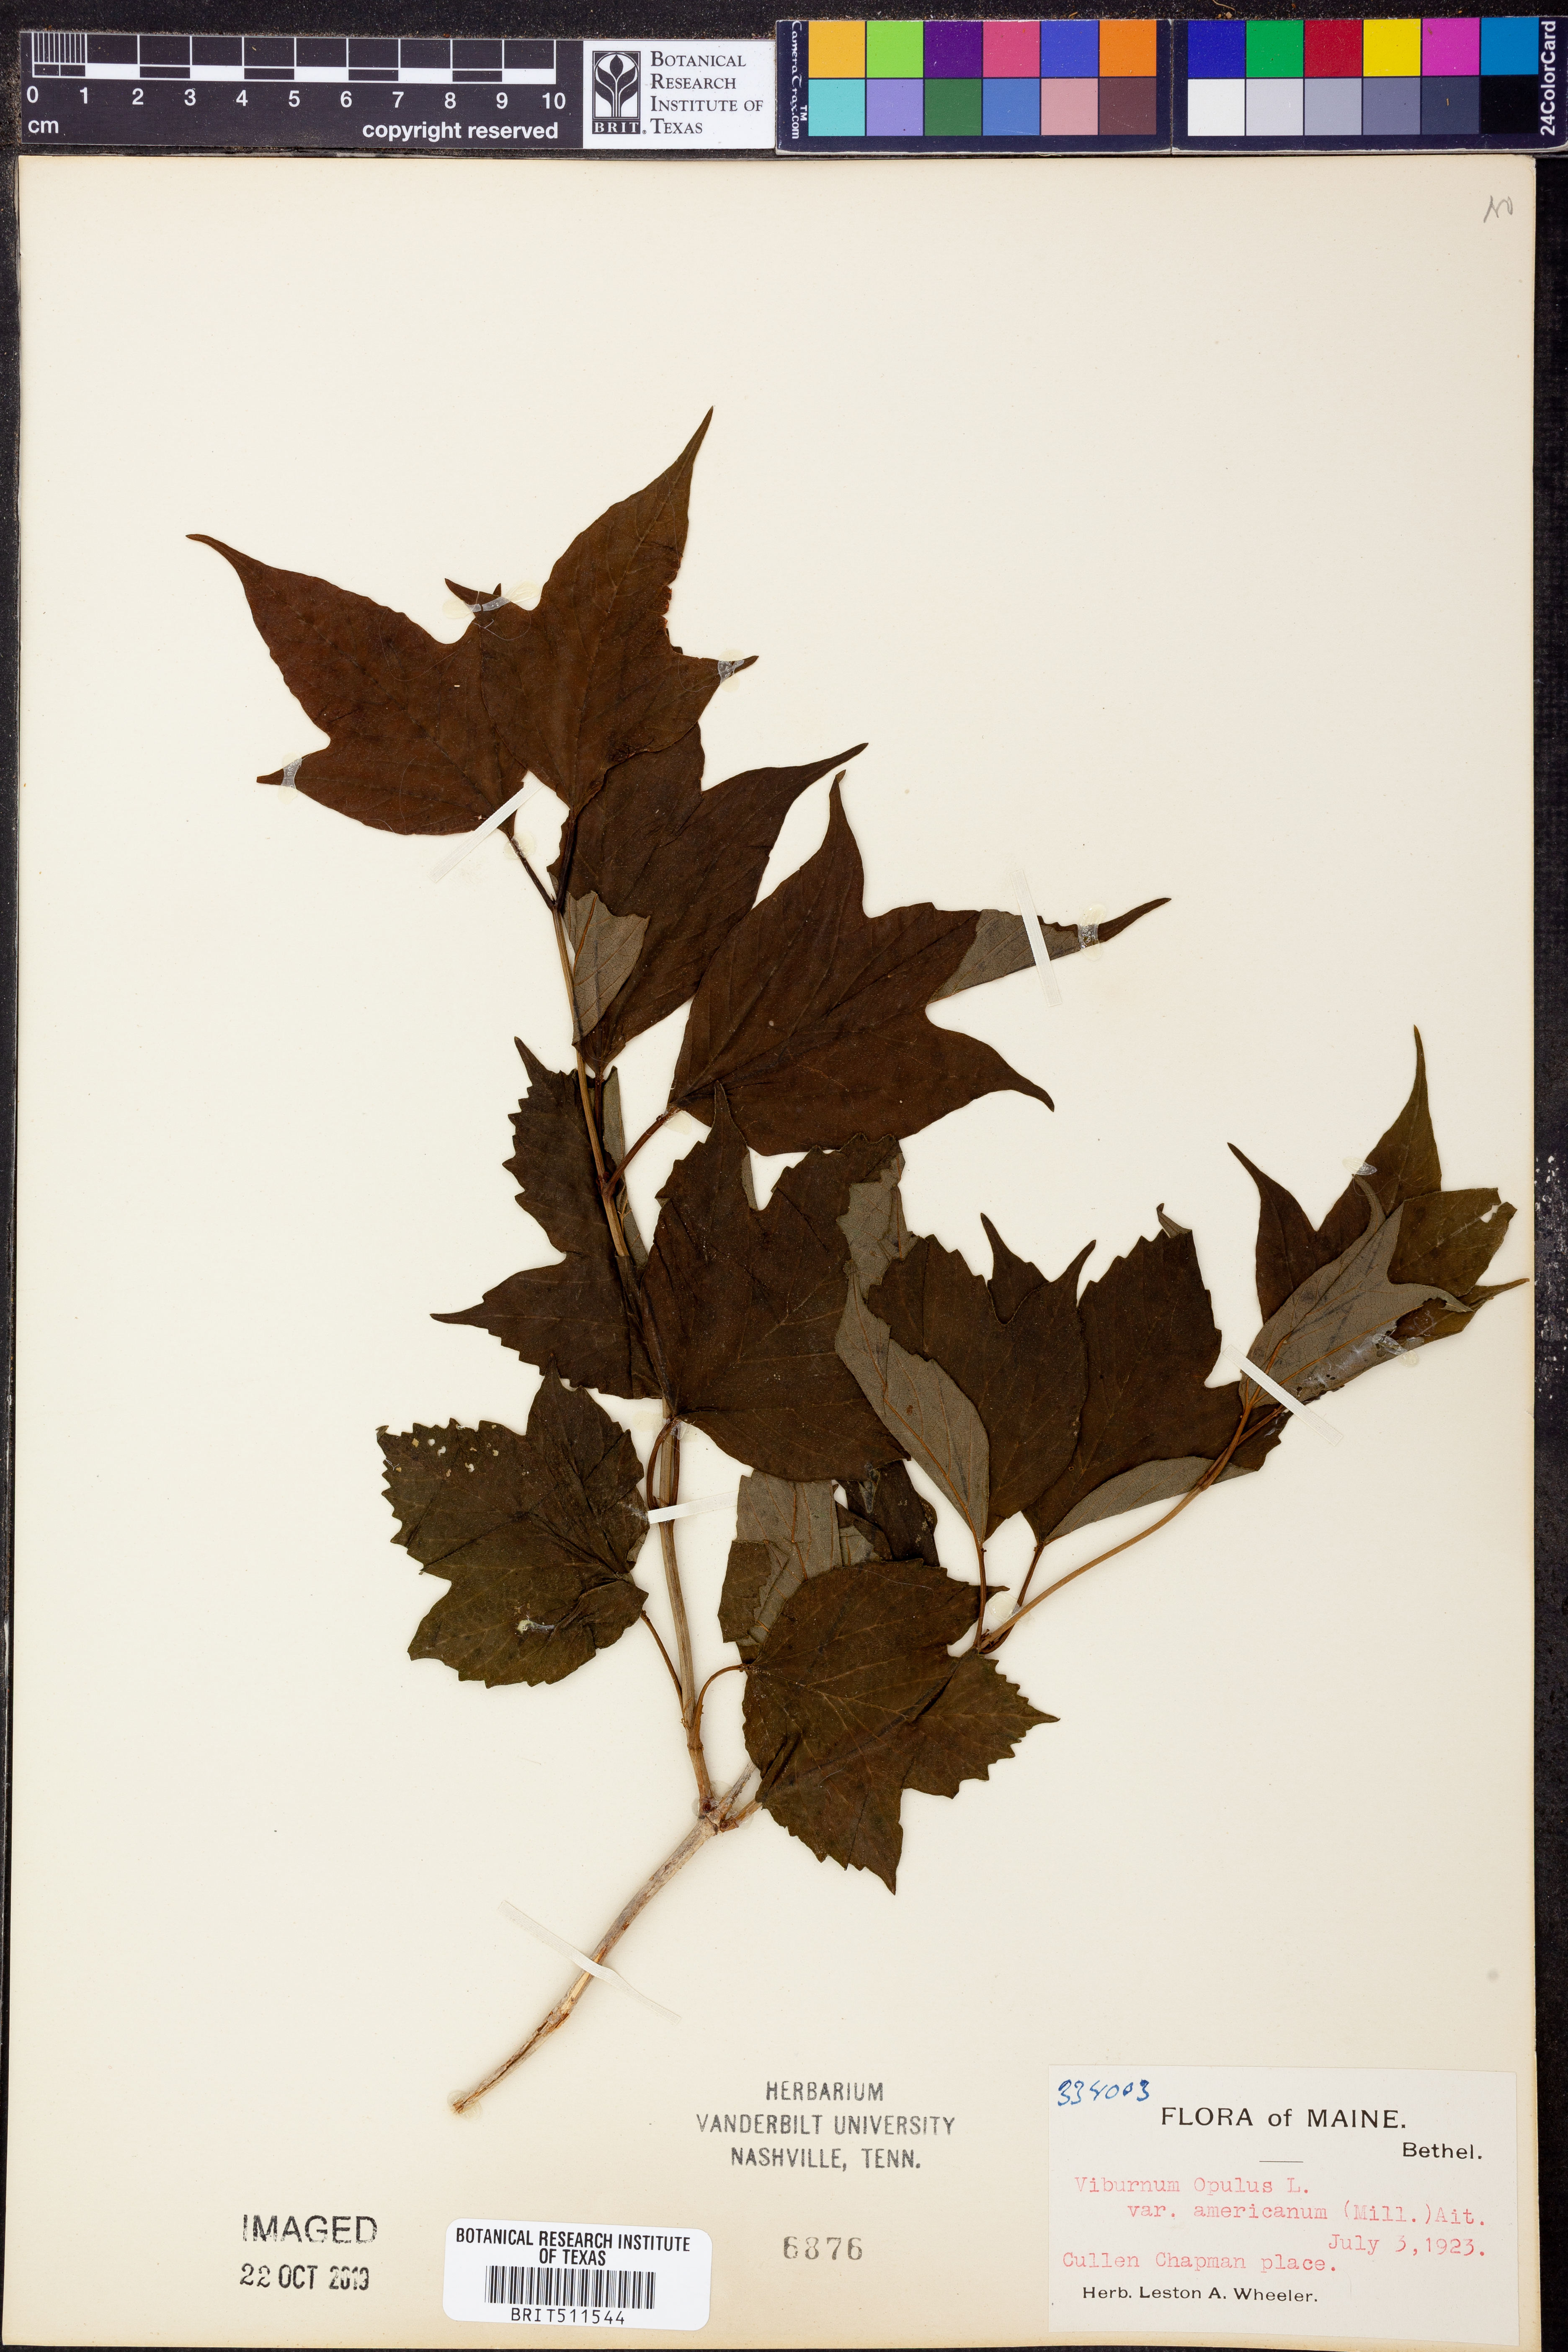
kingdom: Plantae
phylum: Tracheophyta
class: Magnoliopsida
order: Dipsacales
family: Viburnaceae
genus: Viburnum
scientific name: Viburnum trilobum
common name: American cranberrybush
